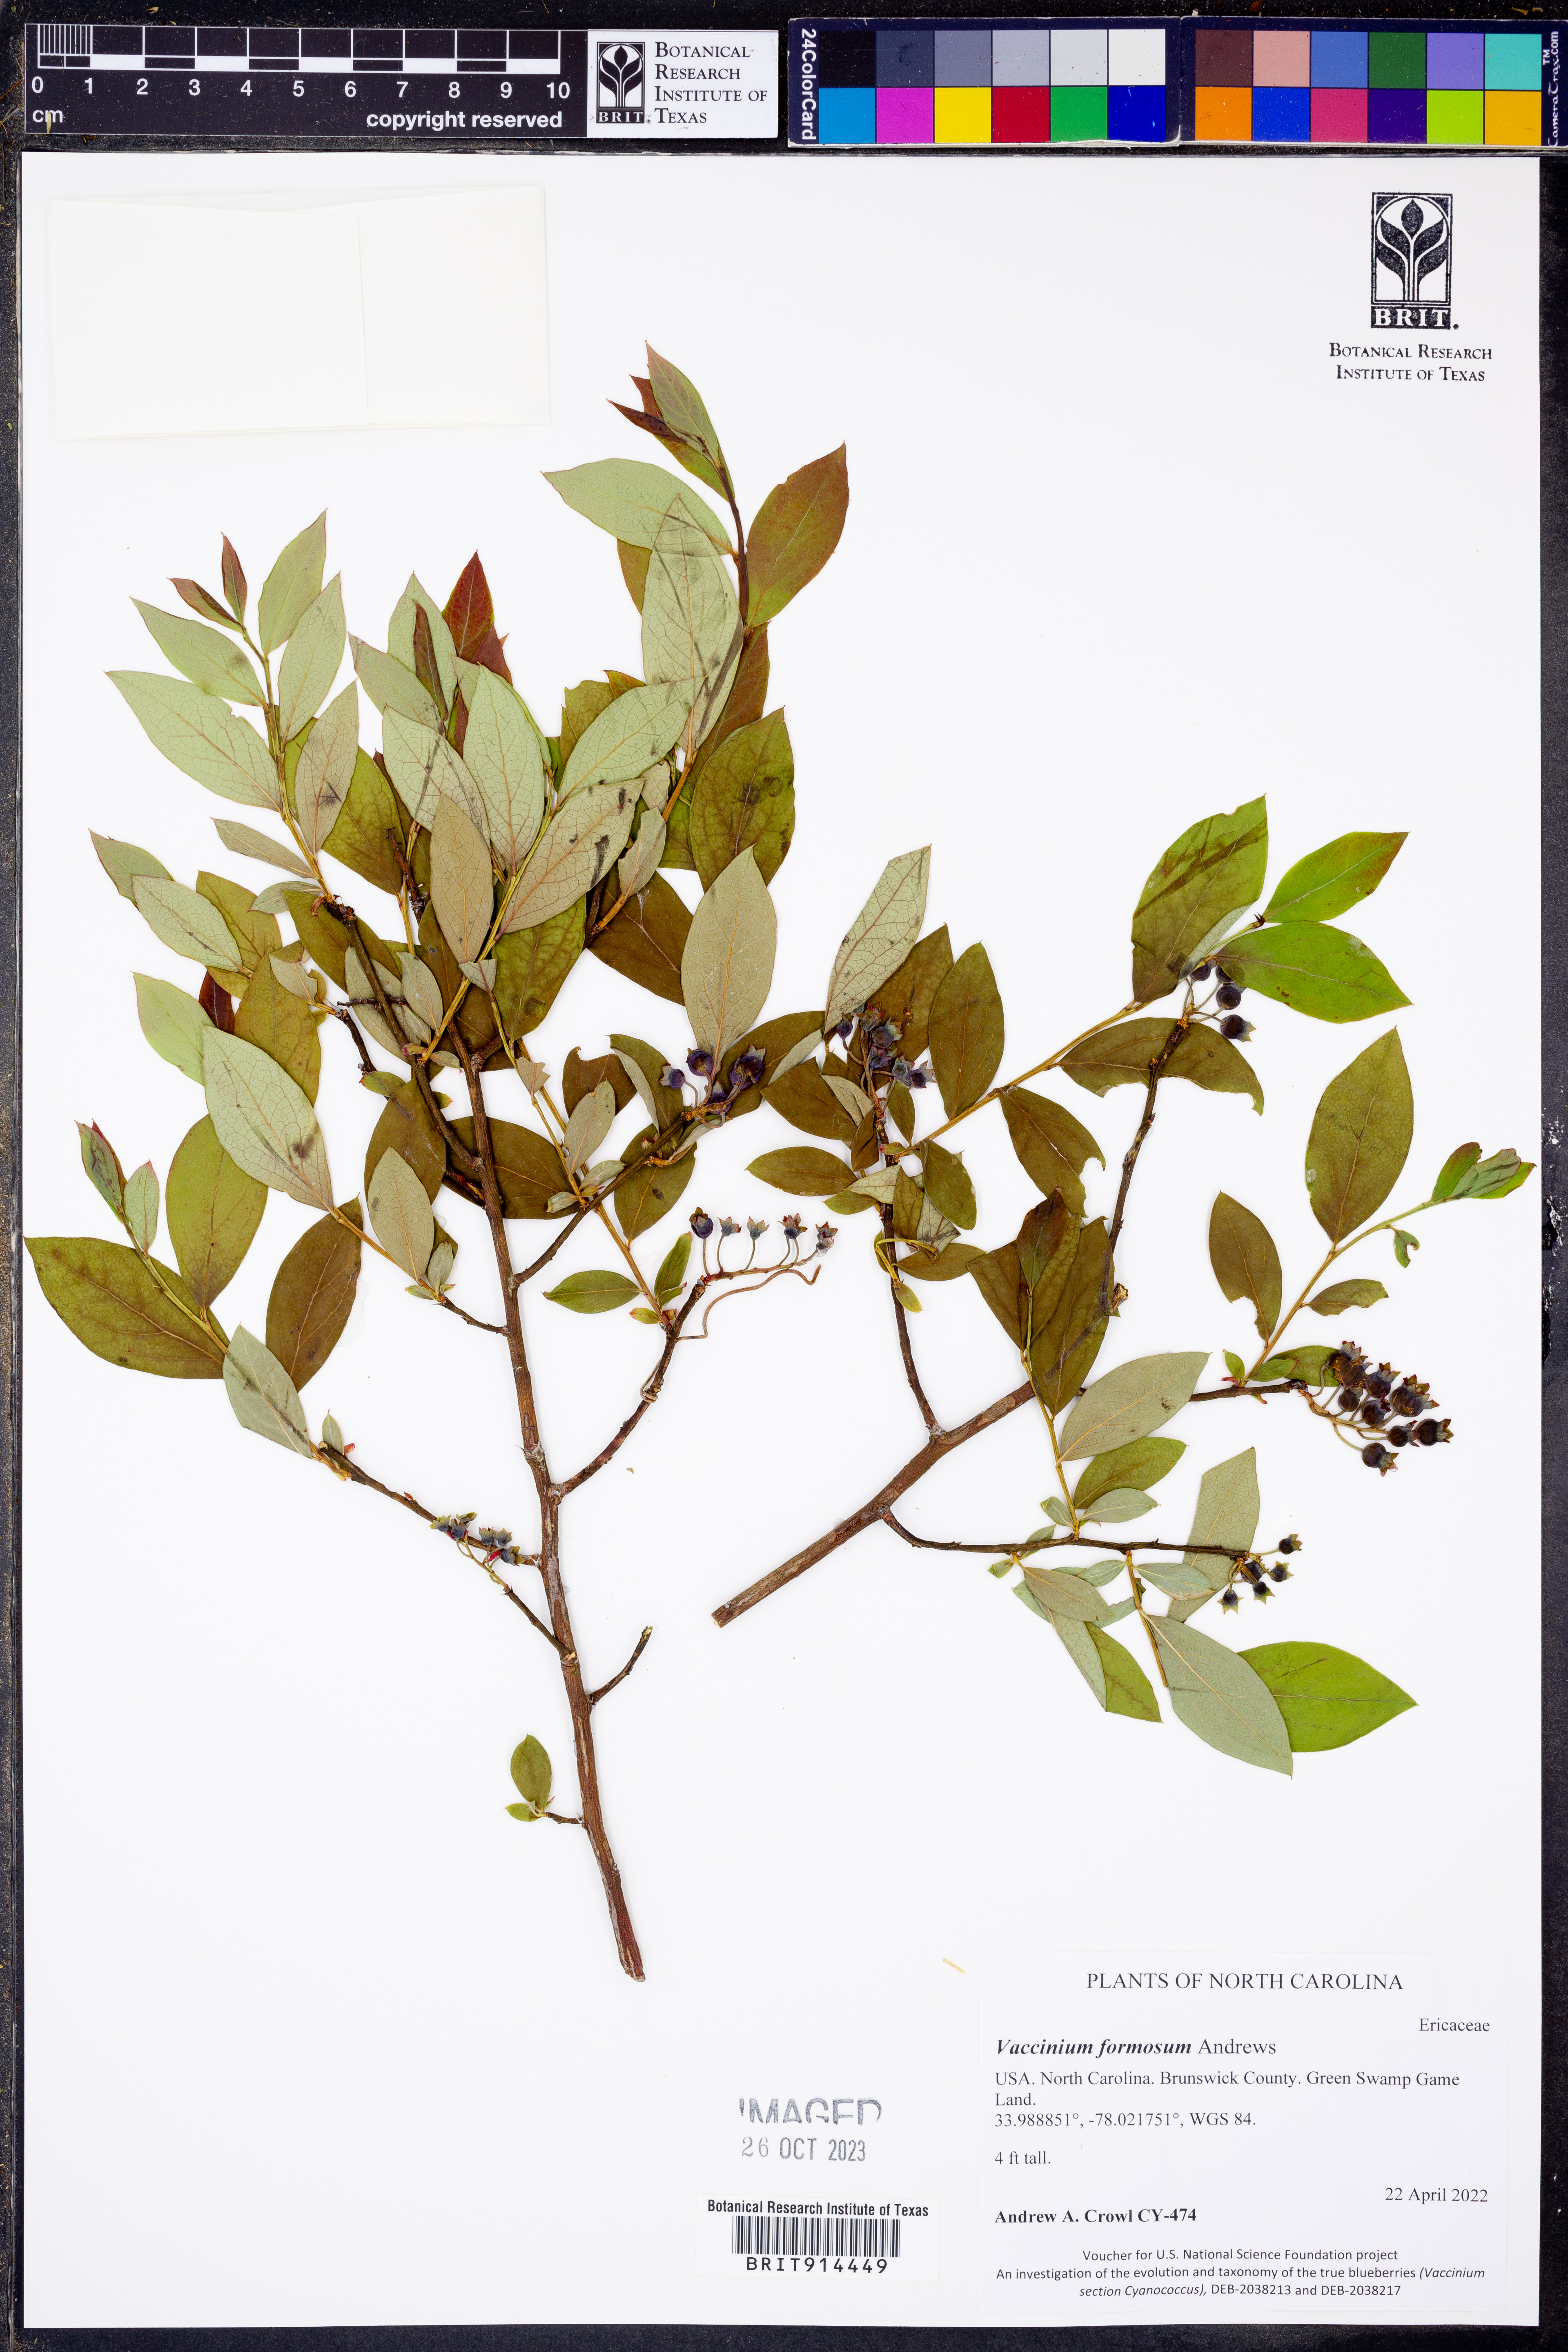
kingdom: Plantae
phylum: Tracheophyta
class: Magnoliopsida
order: Ericales
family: Ericaceae
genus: Vaccinium
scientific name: Vaccinium corymbosum
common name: Blueberry
